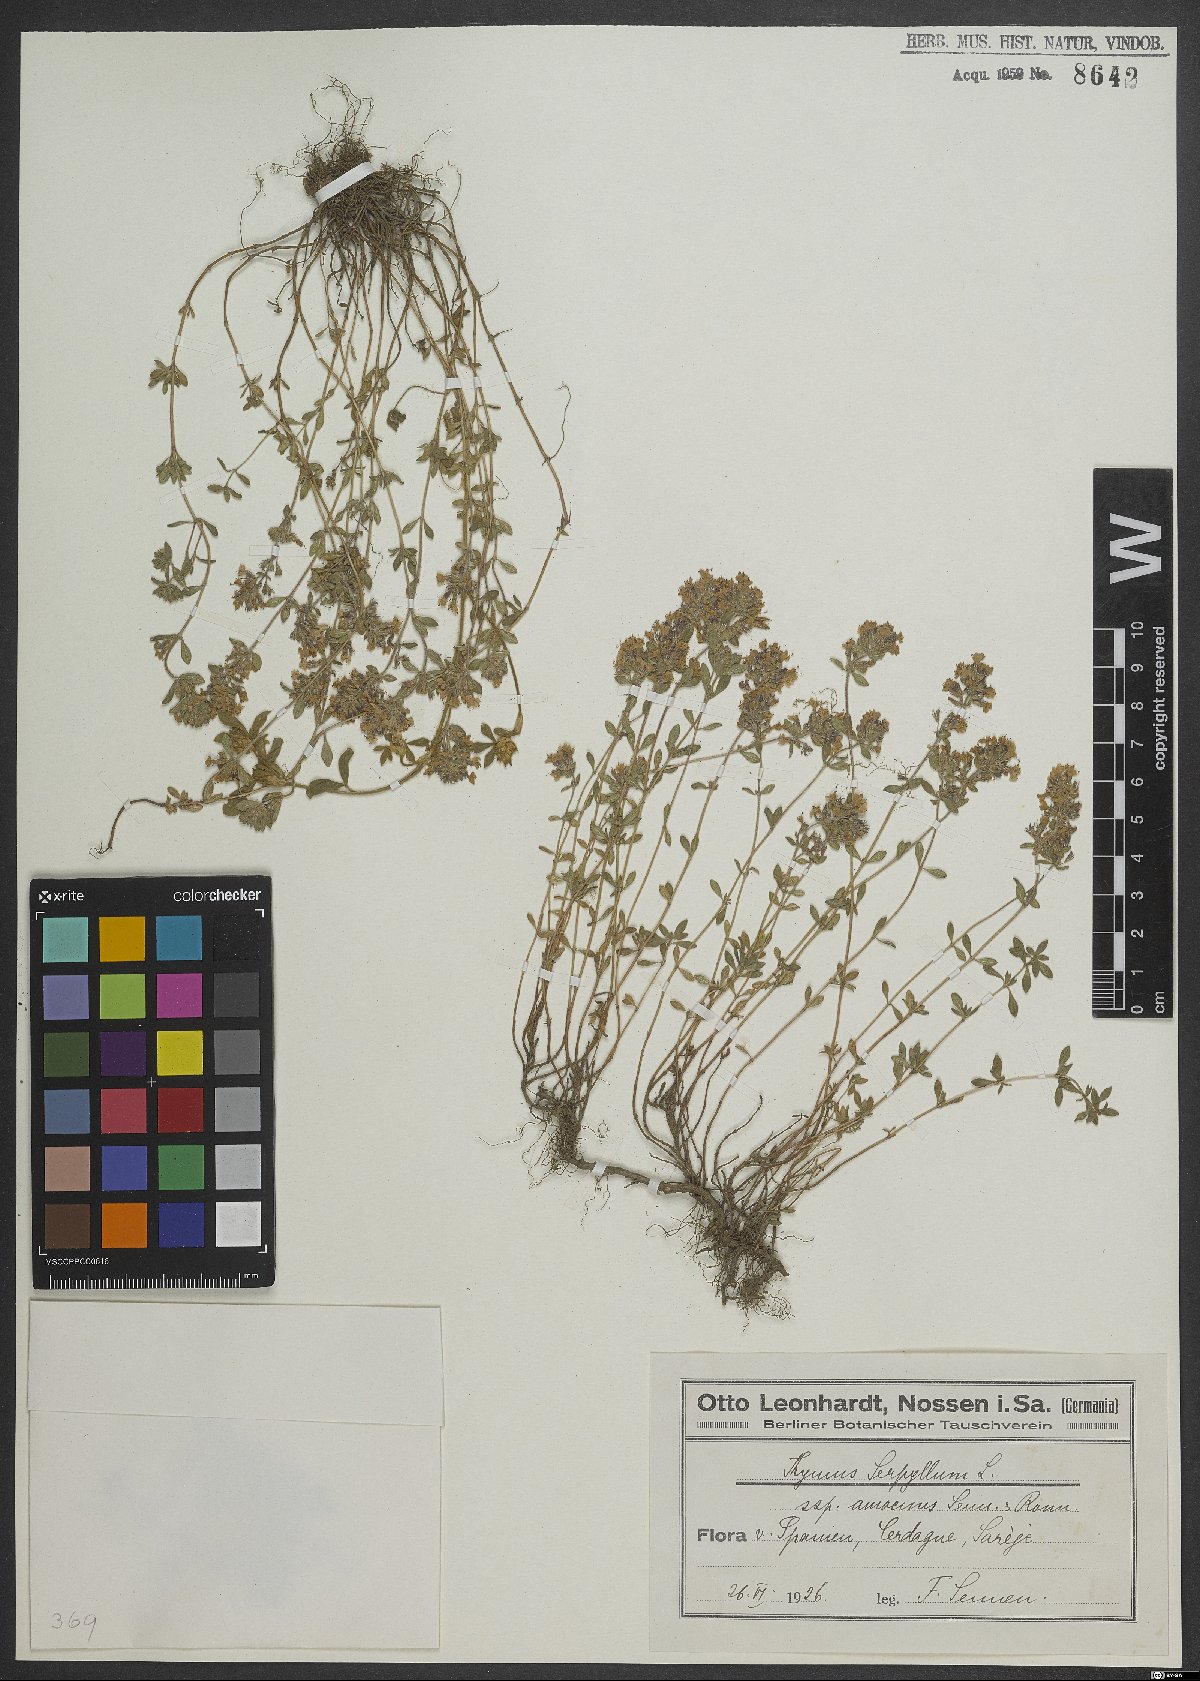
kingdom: Plantae
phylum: Tracheophyta
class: Magnoliopsida
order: Lamiales
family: Lamiaceae
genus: Thymus
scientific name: Thymus serpyllum
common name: Breckland thyme
